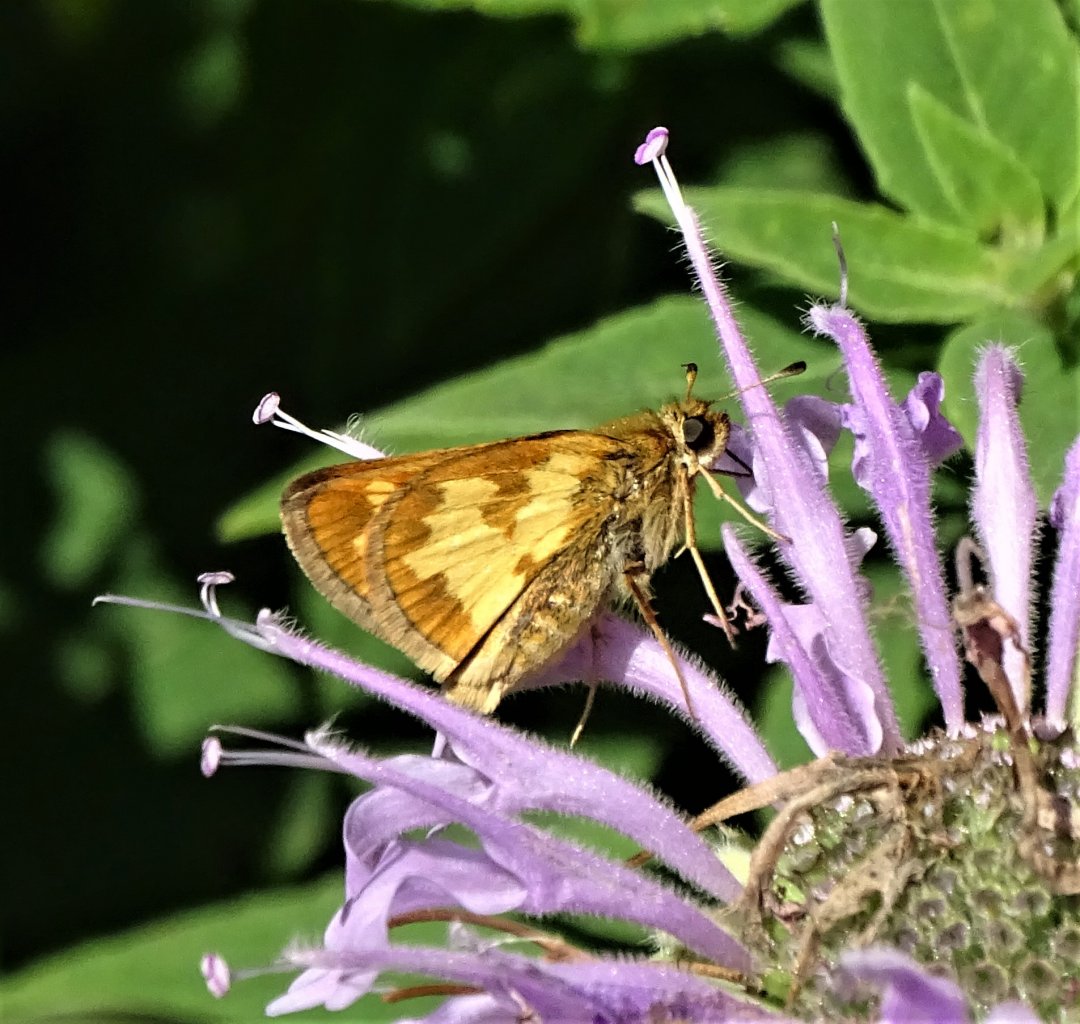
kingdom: Animalia
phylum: Arthropoda
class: Insecta
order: Lepidoptera
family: Hesperiidae
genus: Polites
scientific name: Polites coras
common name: Peck's Skipper
